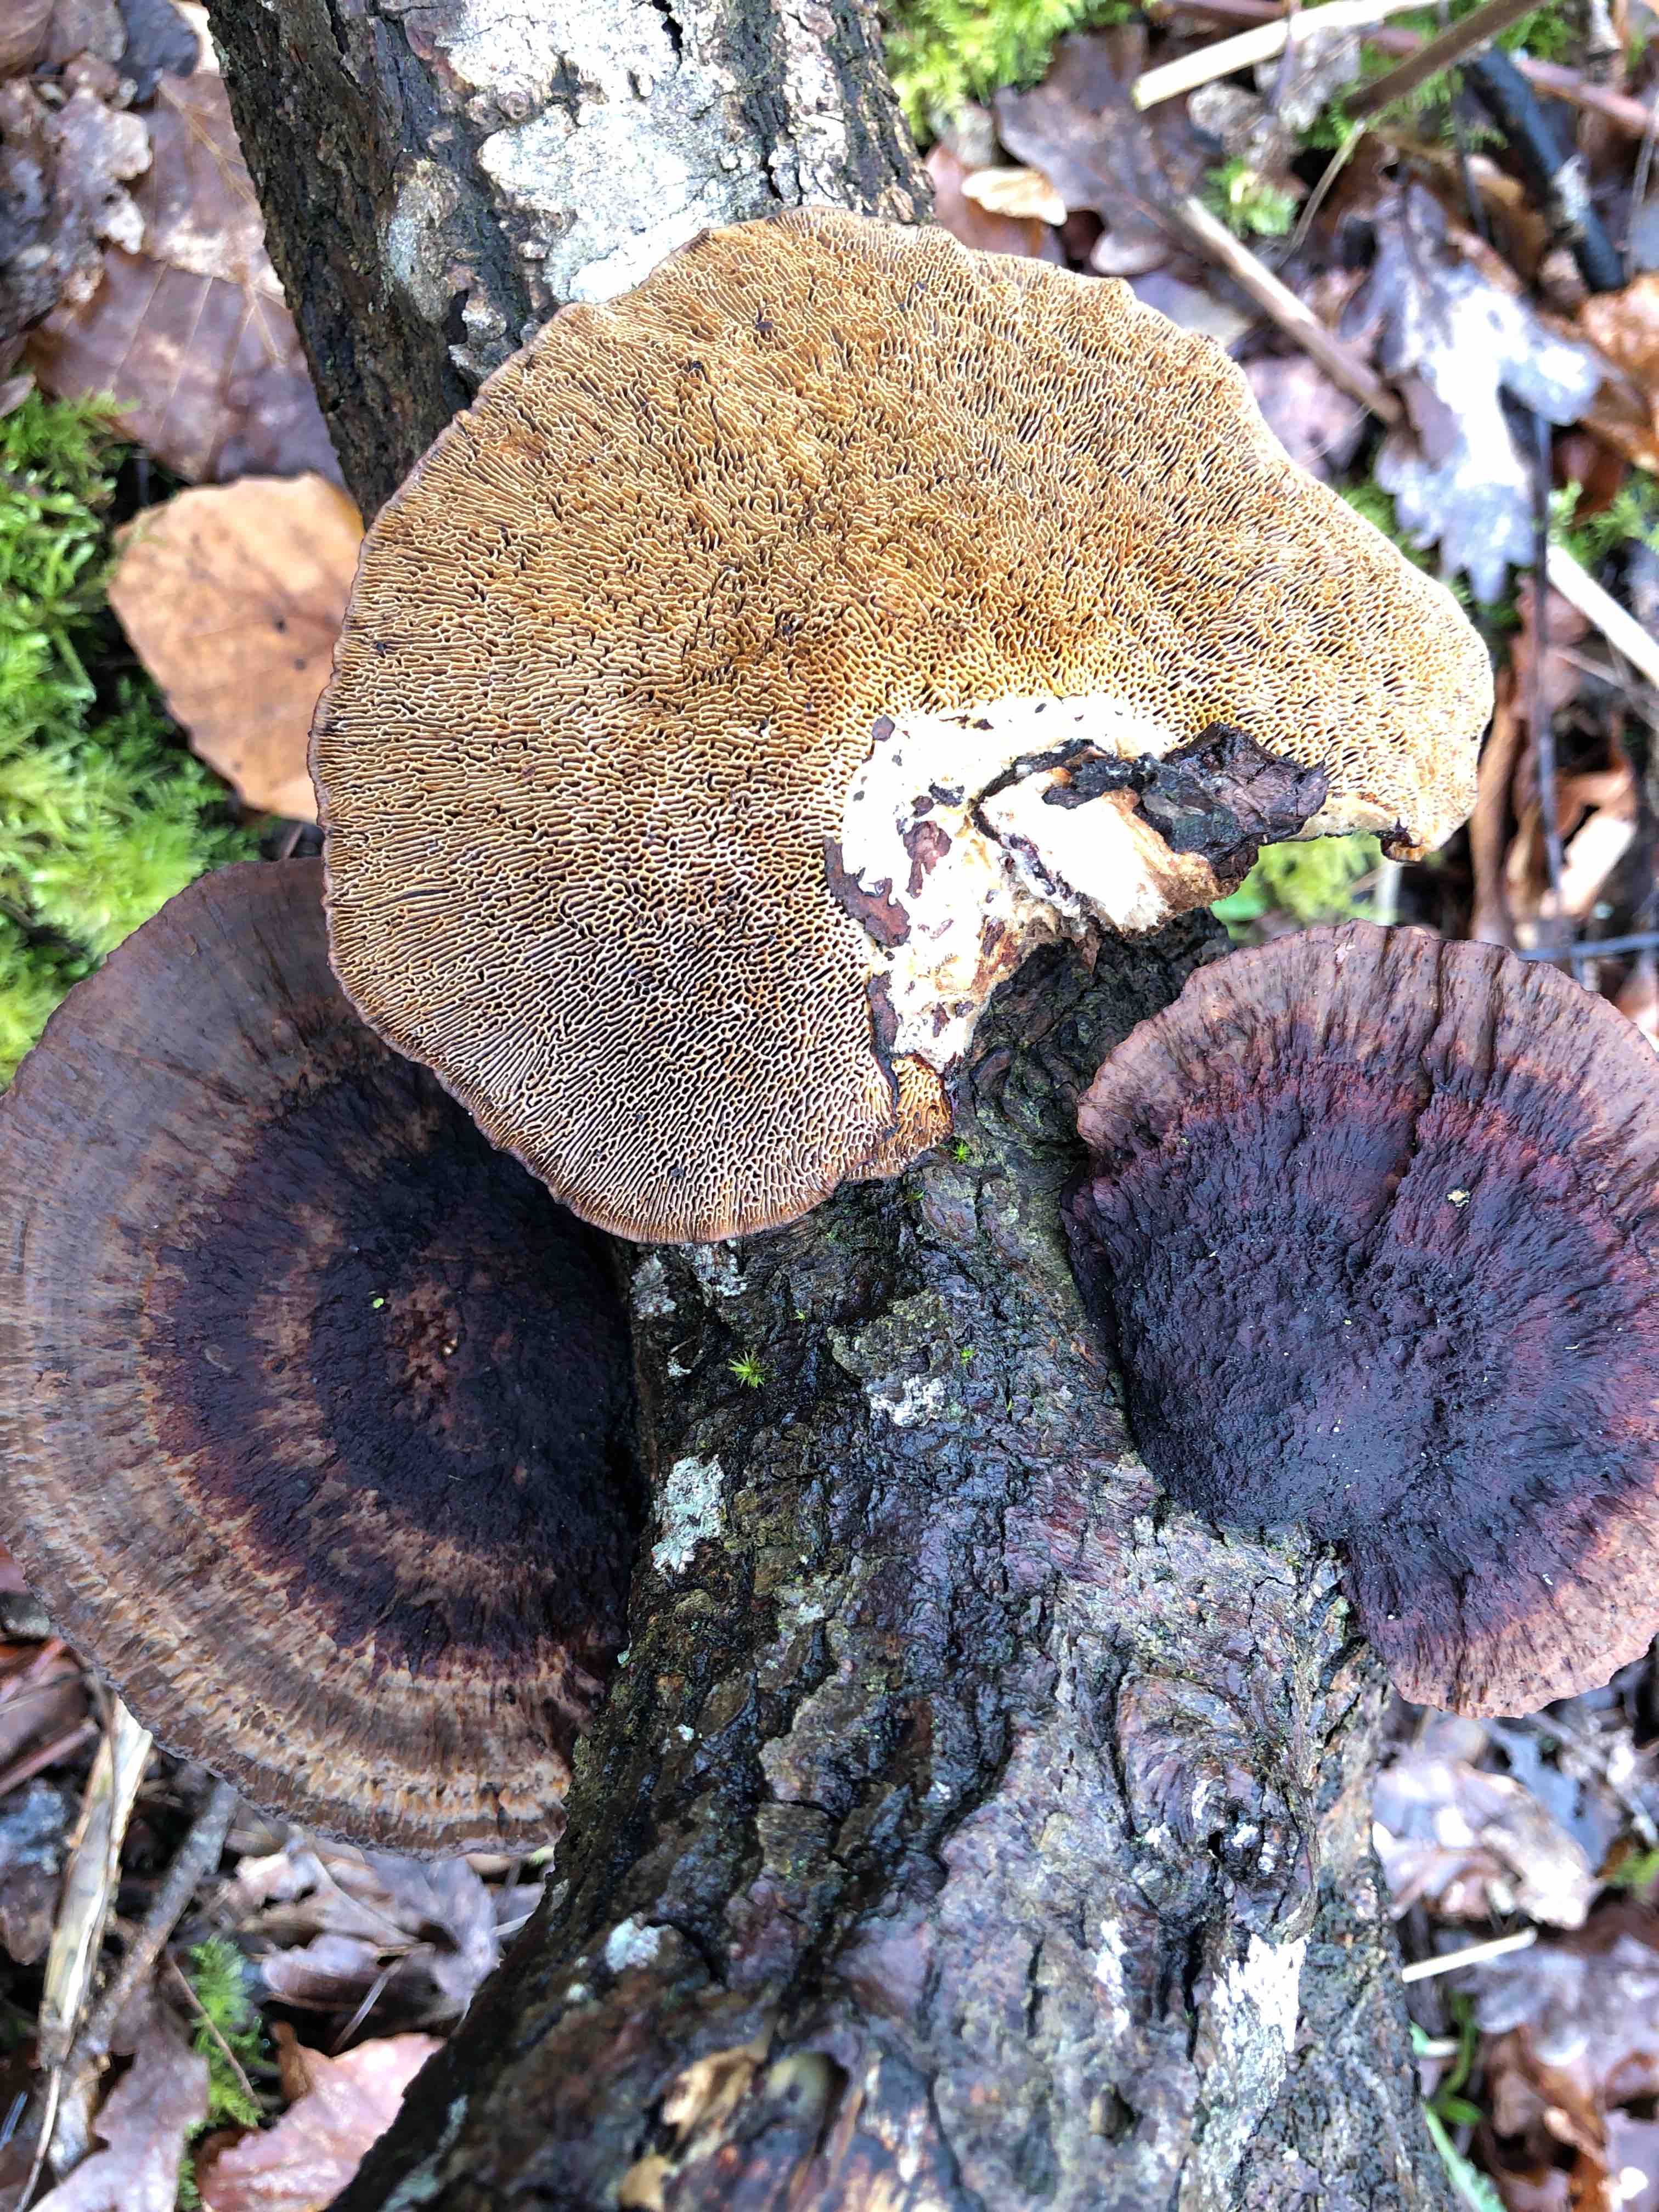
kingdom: Fungi
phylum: Basidiomycota
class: Agaricomycetes
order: Polyporales
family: Polyporaceae
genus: Daedaleopsis
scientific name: Daedaleopsis confragosa
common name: rødmende læderporesvamp
